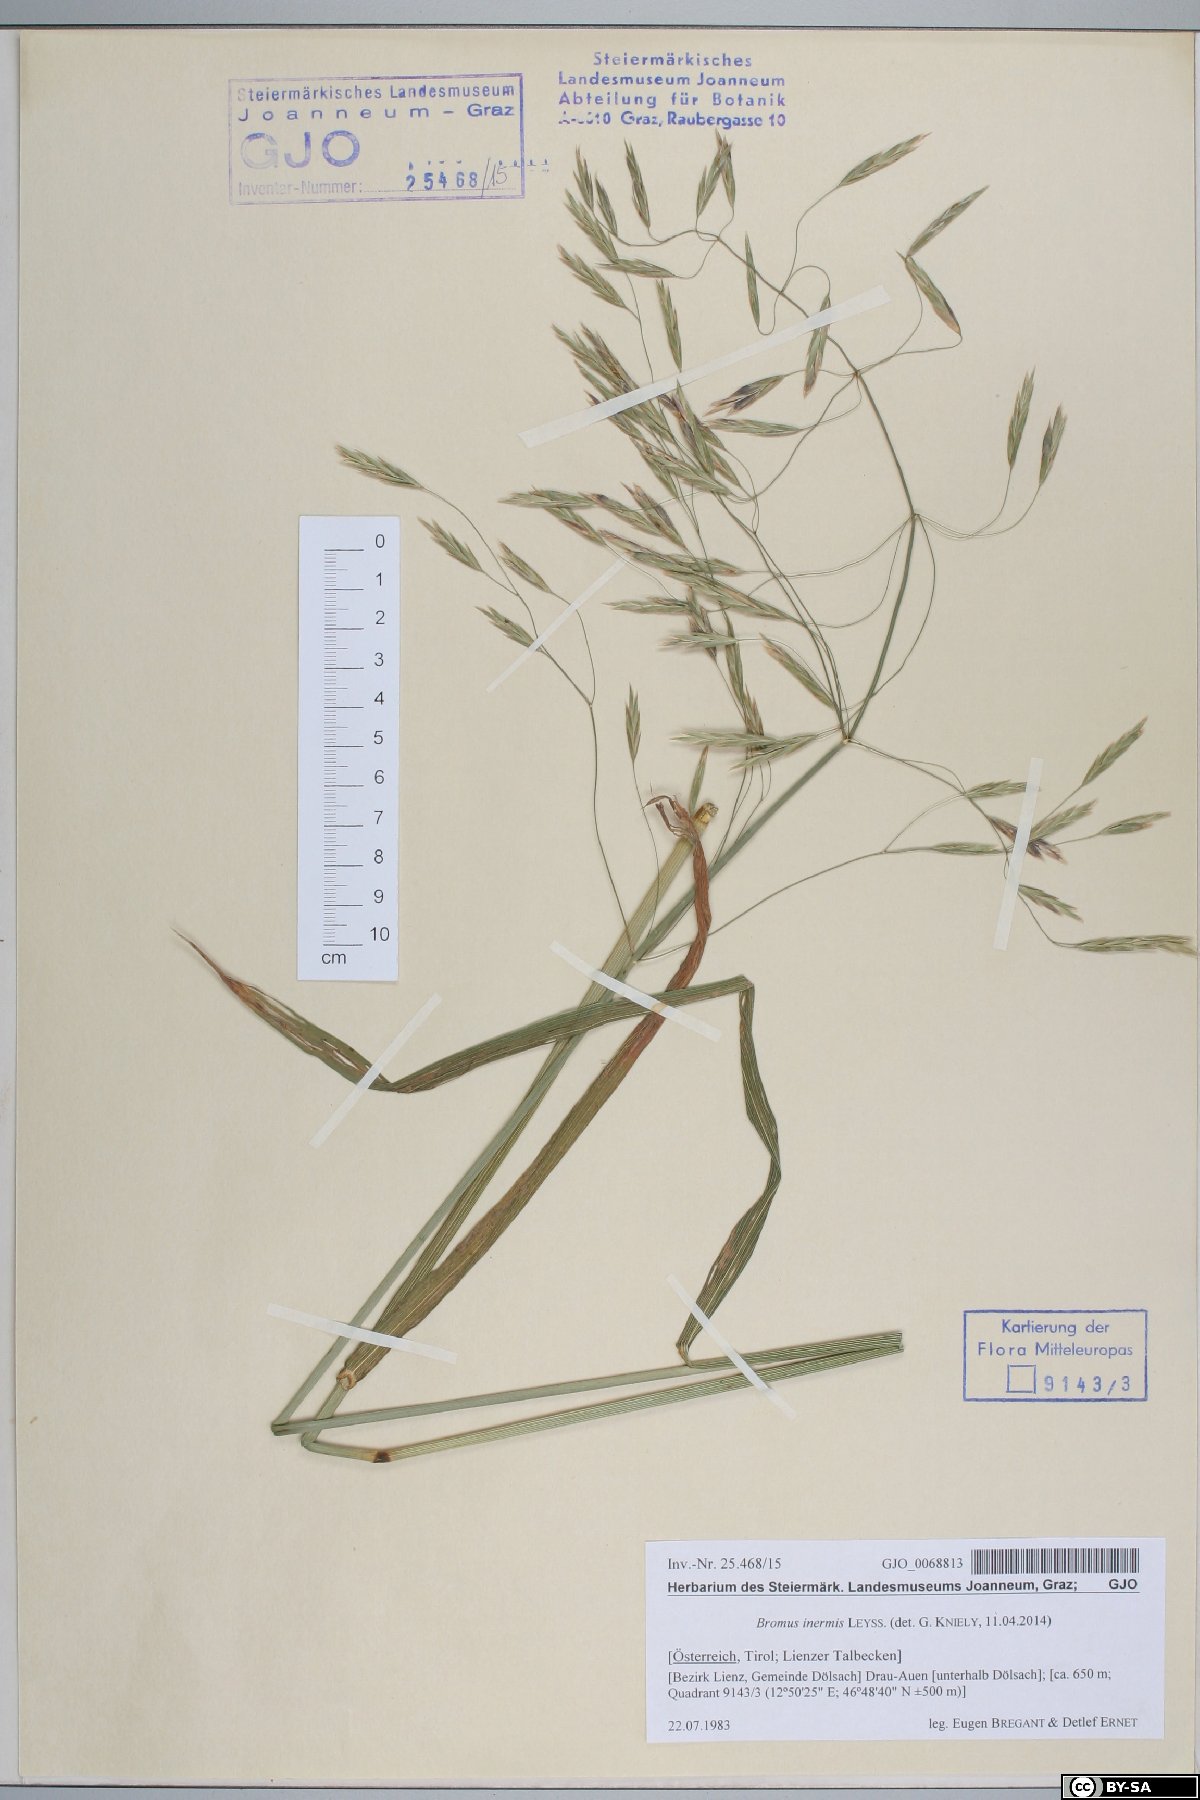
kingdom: Plantae
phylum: Tracheophyta
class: Liliopsida
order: Poales
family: Poaceae
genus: Bromus
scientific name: Bromus inermis
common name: Smooth brome
